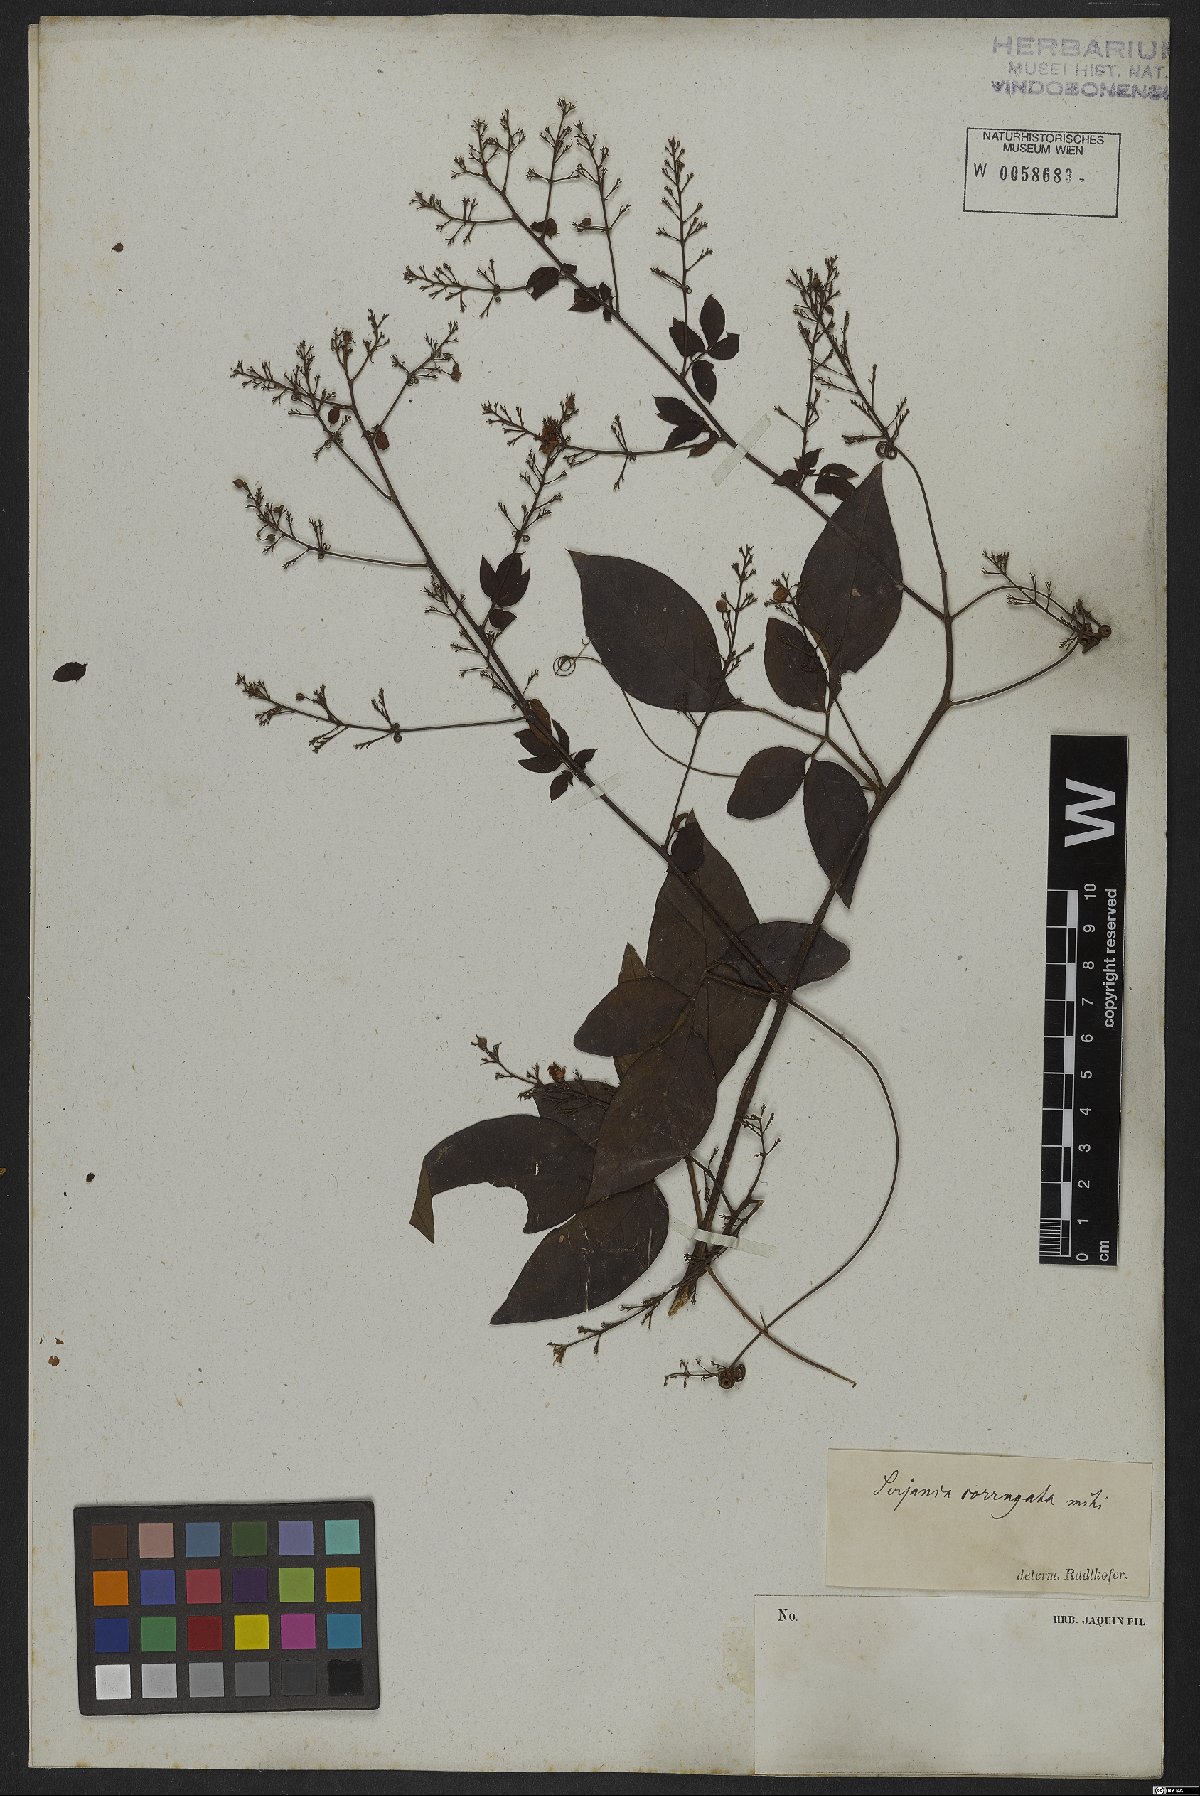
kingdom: Plantae
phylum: Tracheophyta
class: Magnoliopsida
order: Sapindales
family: Sapindaceae
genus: Serjania
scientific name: Serjania corrugata
